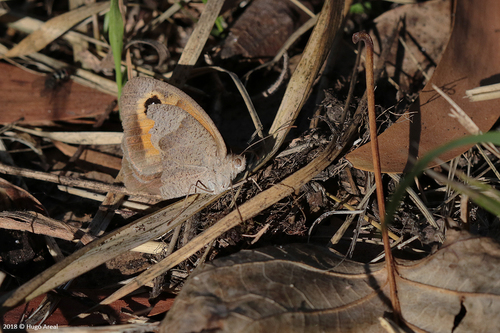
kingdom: Animalia
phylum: Arthropoda
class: Insecta
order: Lepidoptera
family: Nymphalidae
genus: Maniola
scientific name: Maniola jurtina
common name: Meadow brown
